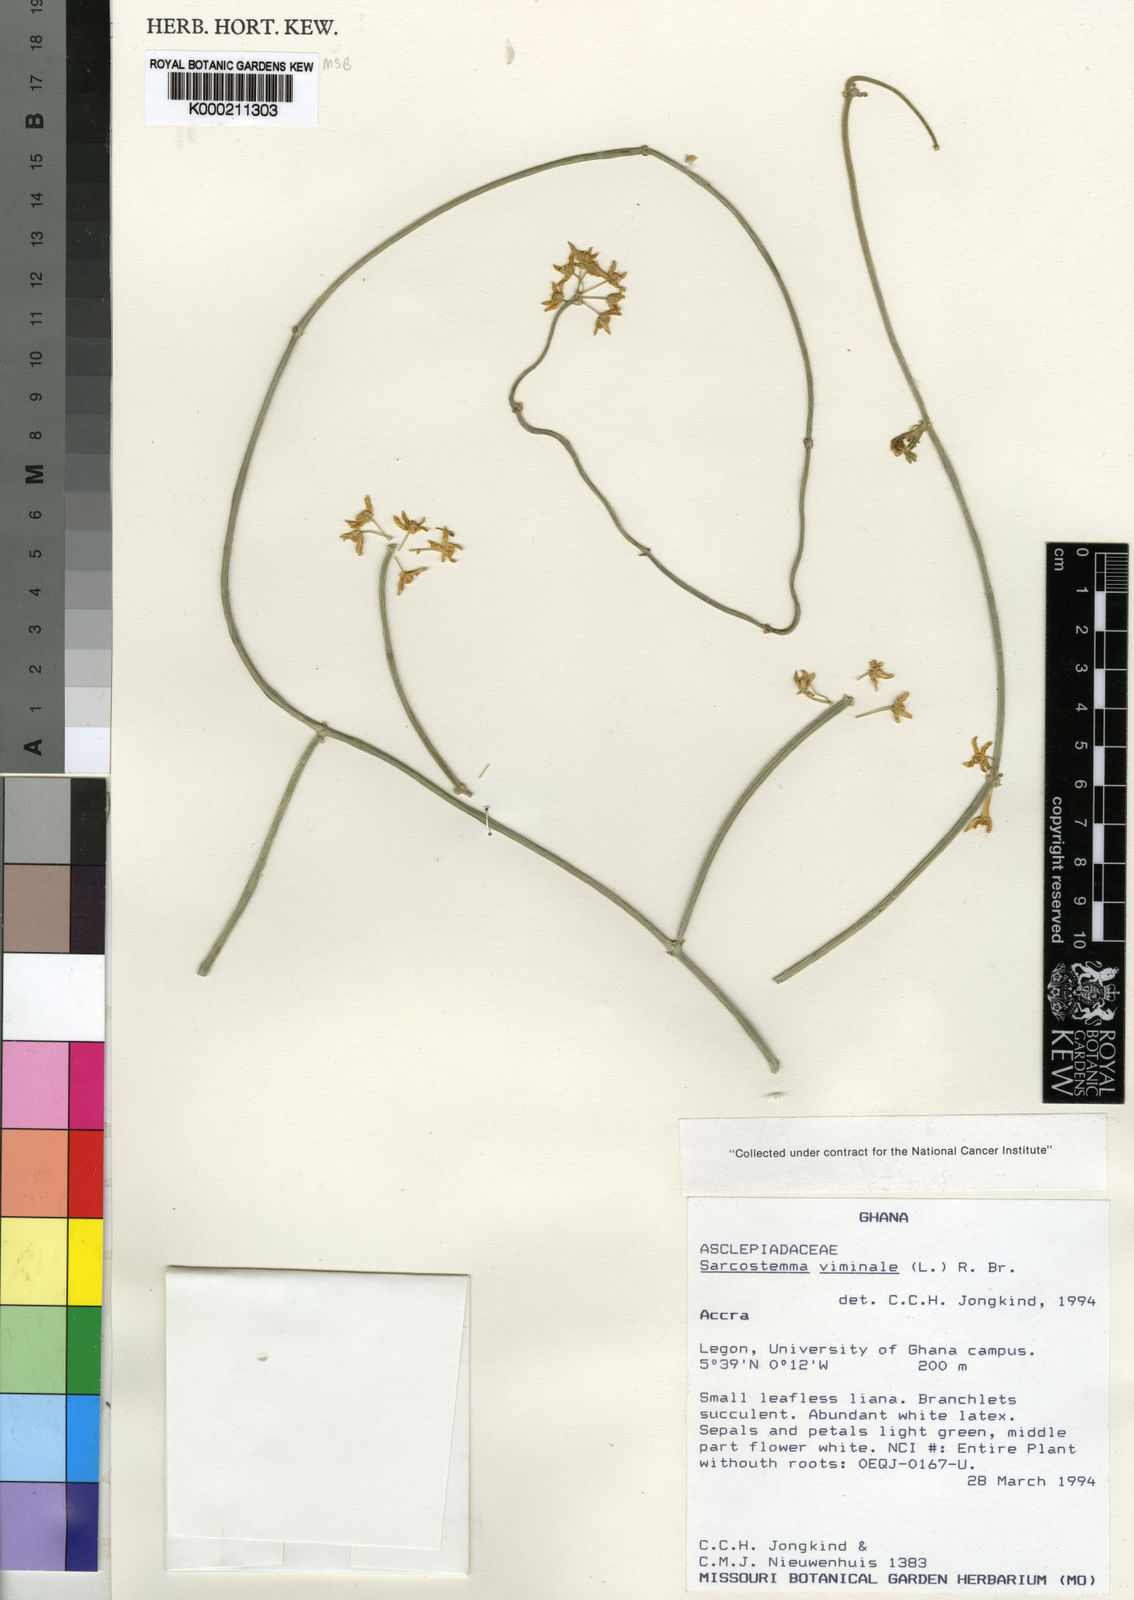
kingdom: Plantae
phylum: Tracheophyta
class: Magnoliopsida
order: Gentianales
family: Apocynaceae
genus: Cynanchum
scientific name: Cynanchum viminale
